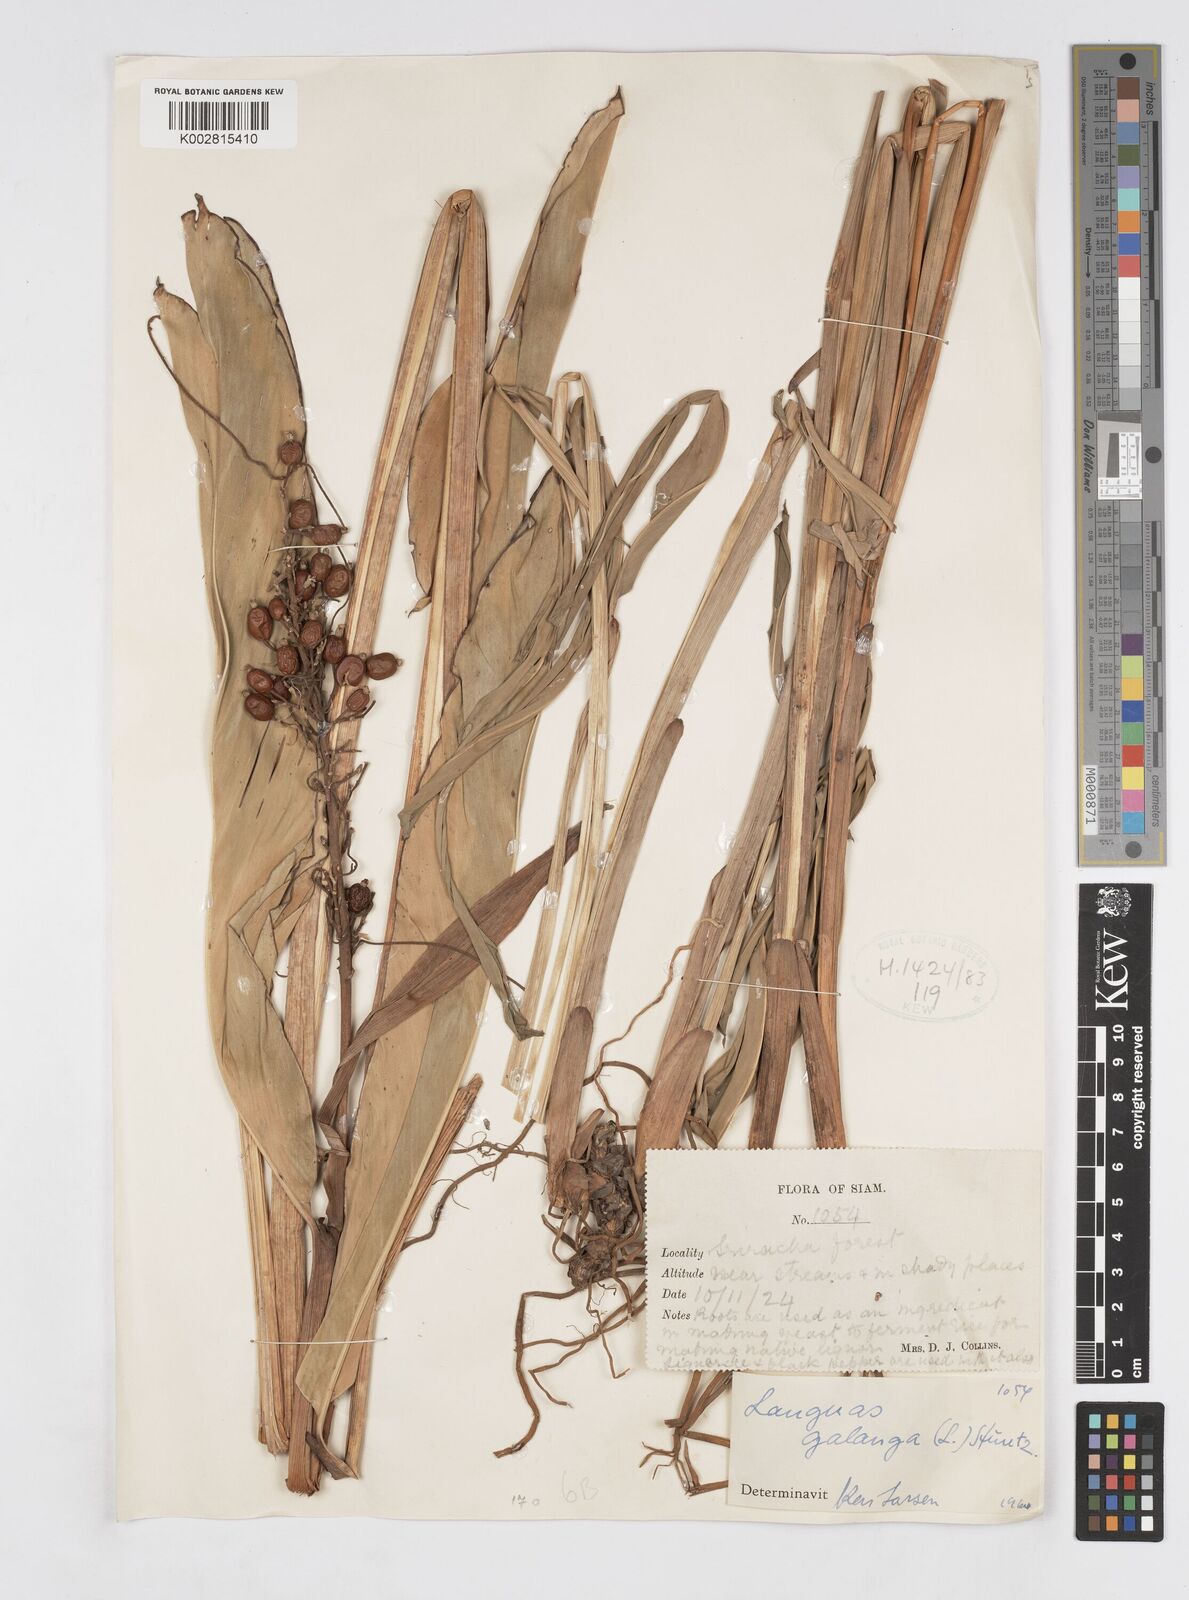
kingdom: Plantae
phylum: Tracheophyta
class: Liliopsida
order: Zingiberales
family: Zingiberaceae
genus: Alpinia
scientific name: Alpinia galanga
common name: Siamese-ginger
